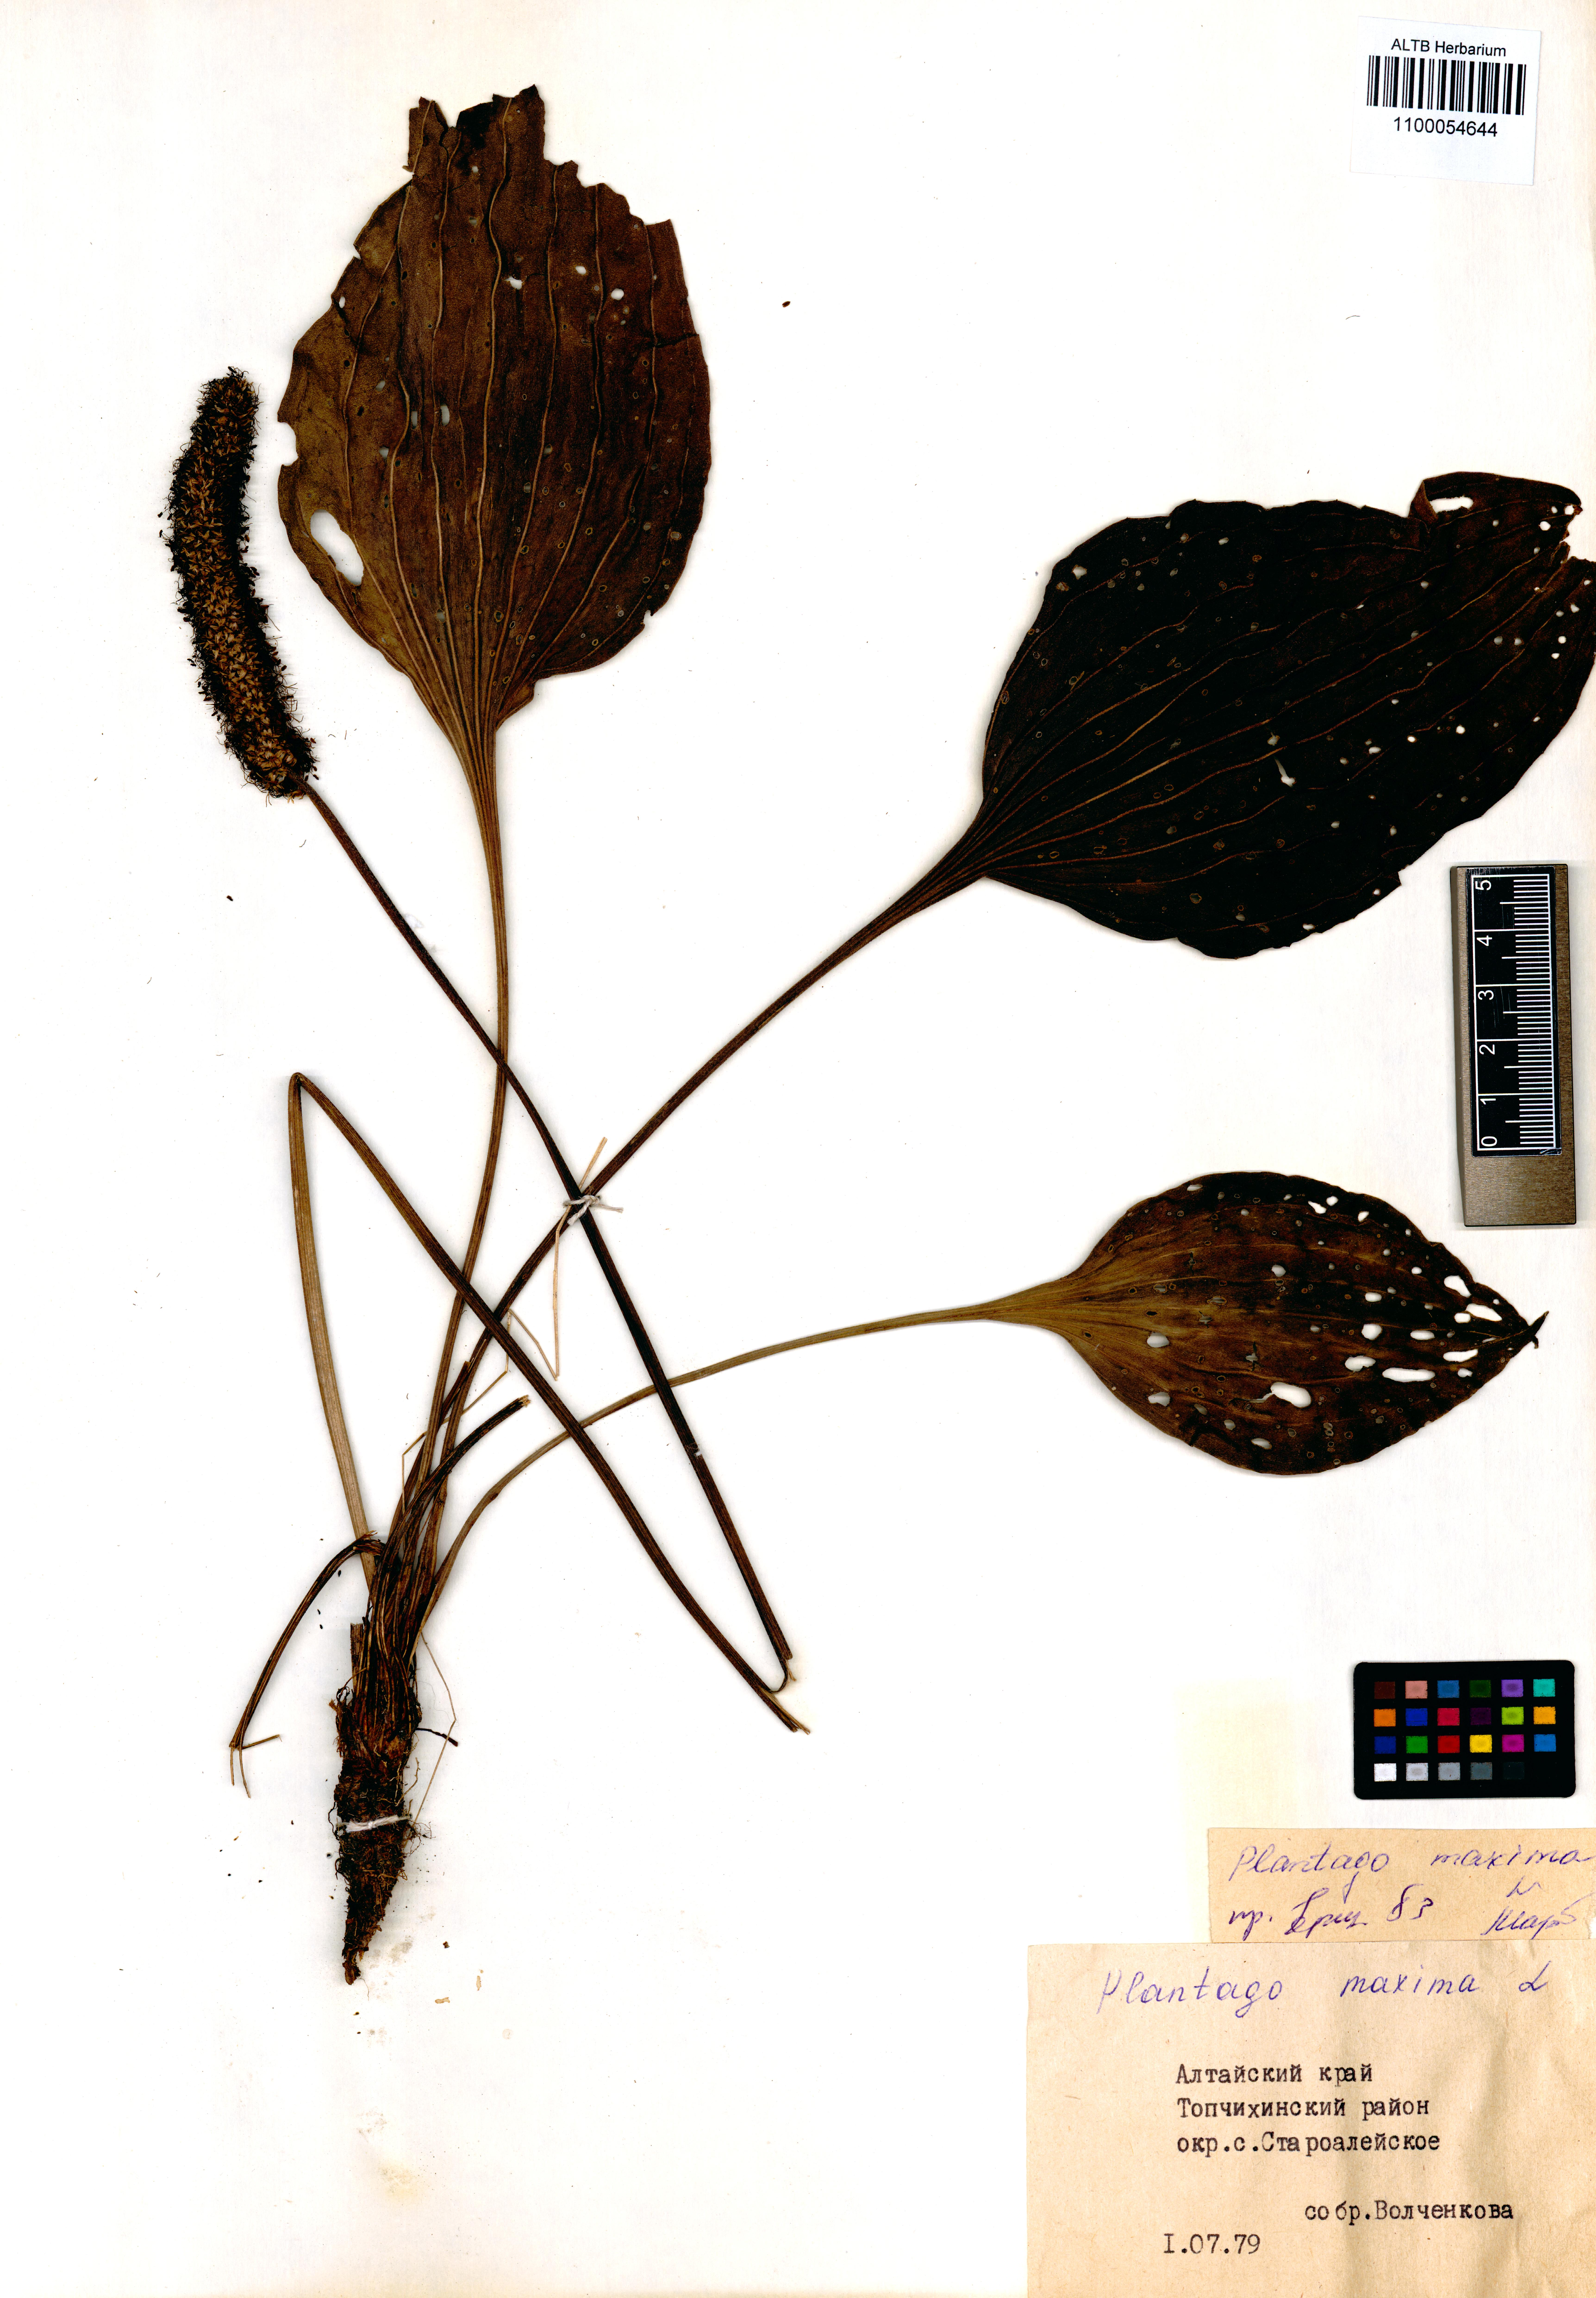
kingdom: Plantae
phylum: Tracheophyta
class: Magnoliopsida
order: Lamiales
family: Plantaginaceae
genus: Plantago
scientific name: Plantago maxima
